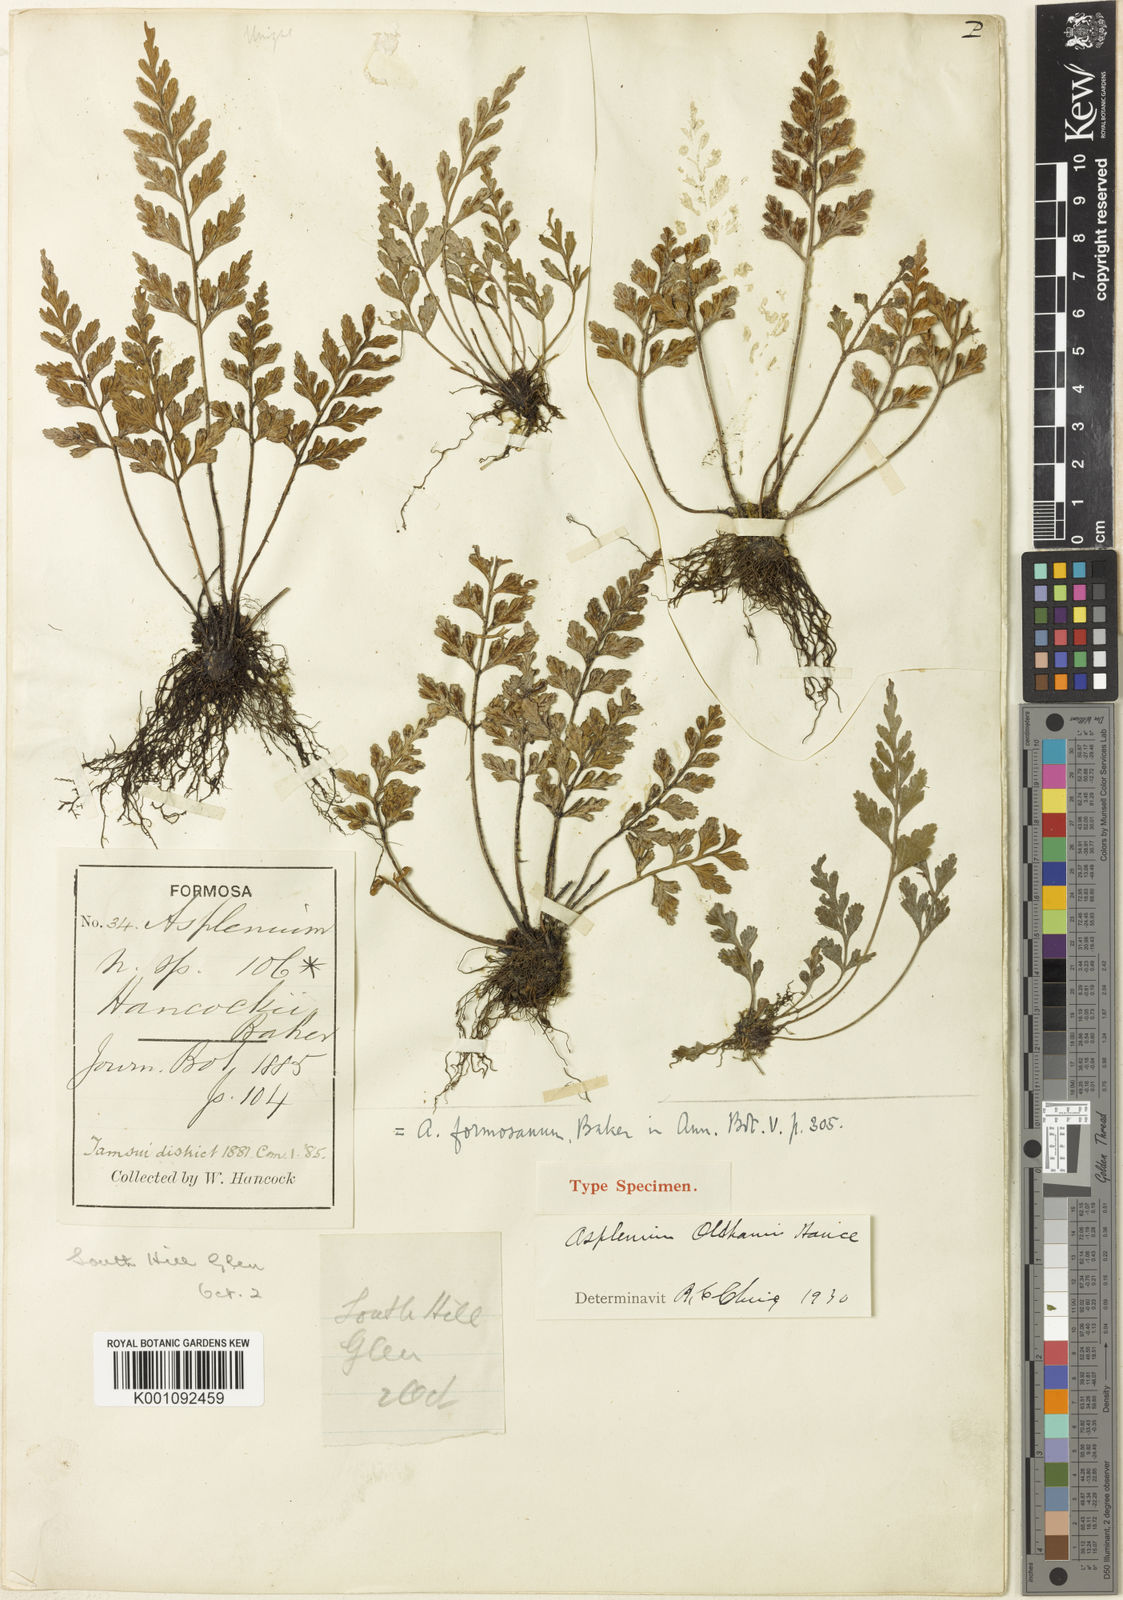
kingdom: Plantae
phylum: Tracheophyta
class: Polypodiopsida
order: Polypodiales
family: Aspleniaceae
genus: Asplenium
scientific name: Asplenium oldhamii
